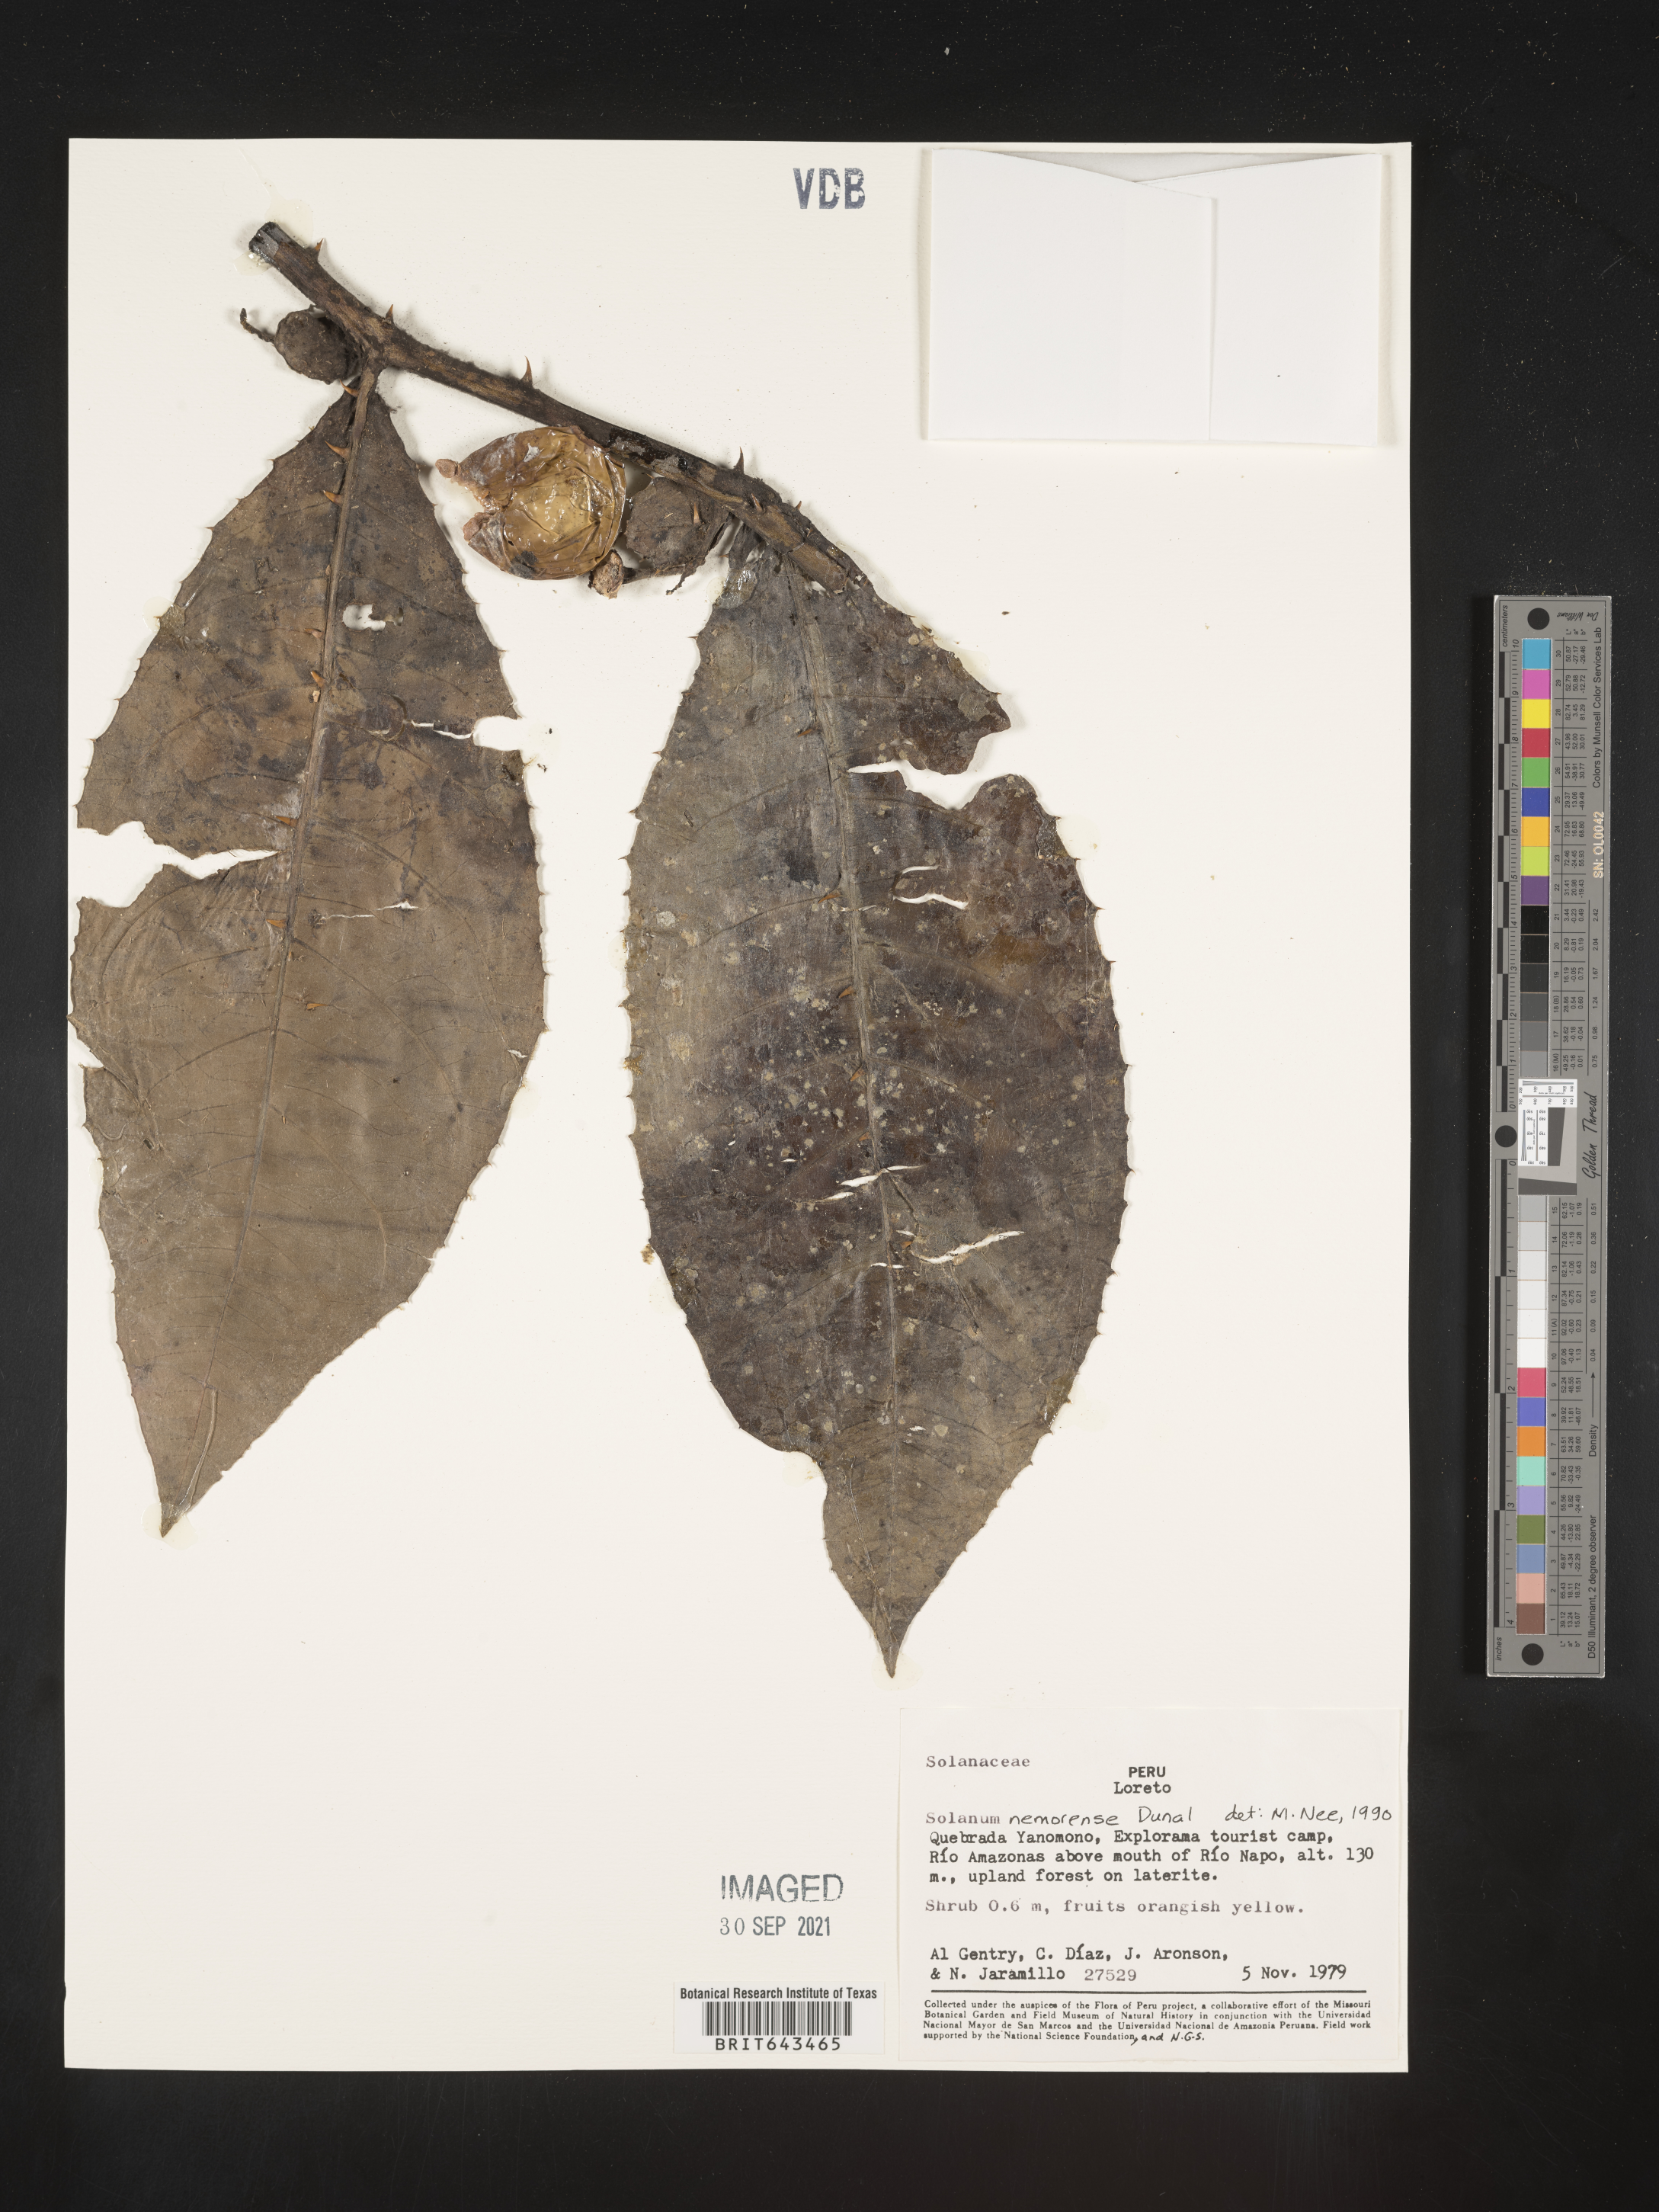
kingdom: Plantae
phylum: Tracheophyta
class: Magnoliopsida
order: Solanales
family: Solanaceae
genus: Solanum
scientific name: Solanum
